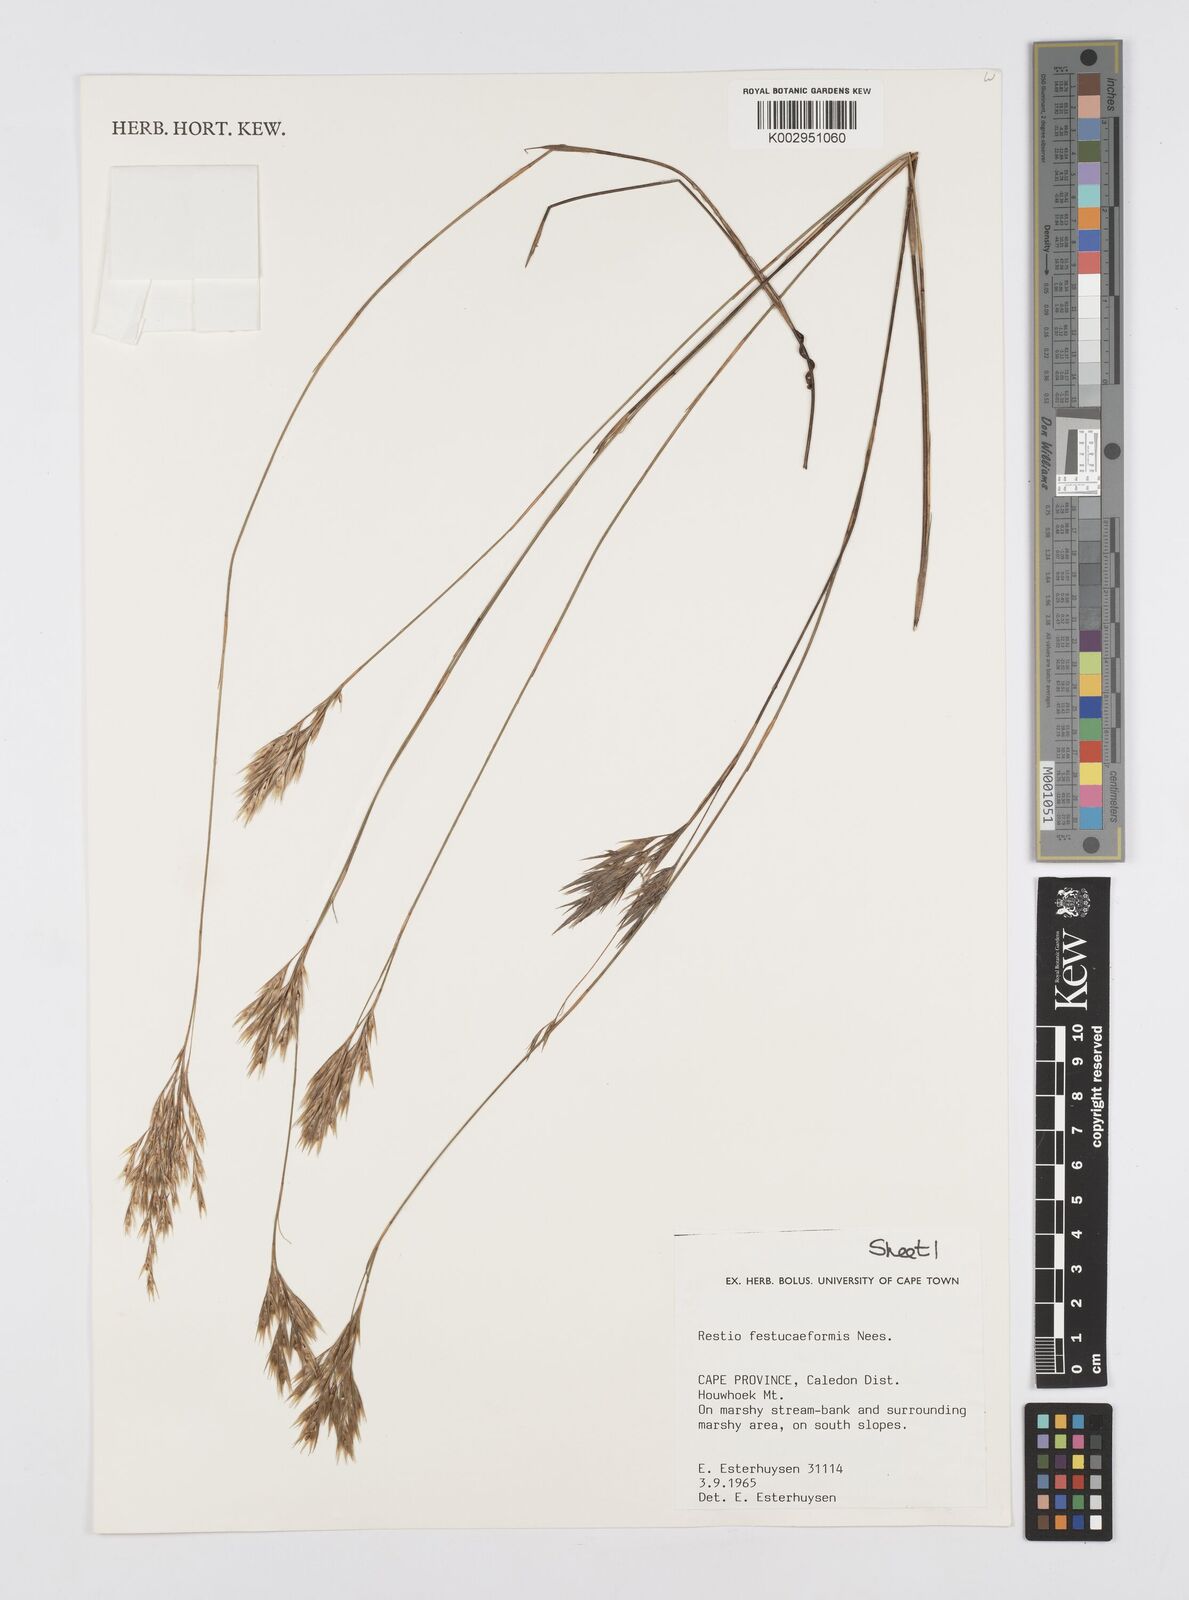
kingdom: Plantae
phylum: Tracheophyta
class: Liliopsida
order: Poales
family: Restionaceae
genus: Restio
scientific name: Restio festuciformis
